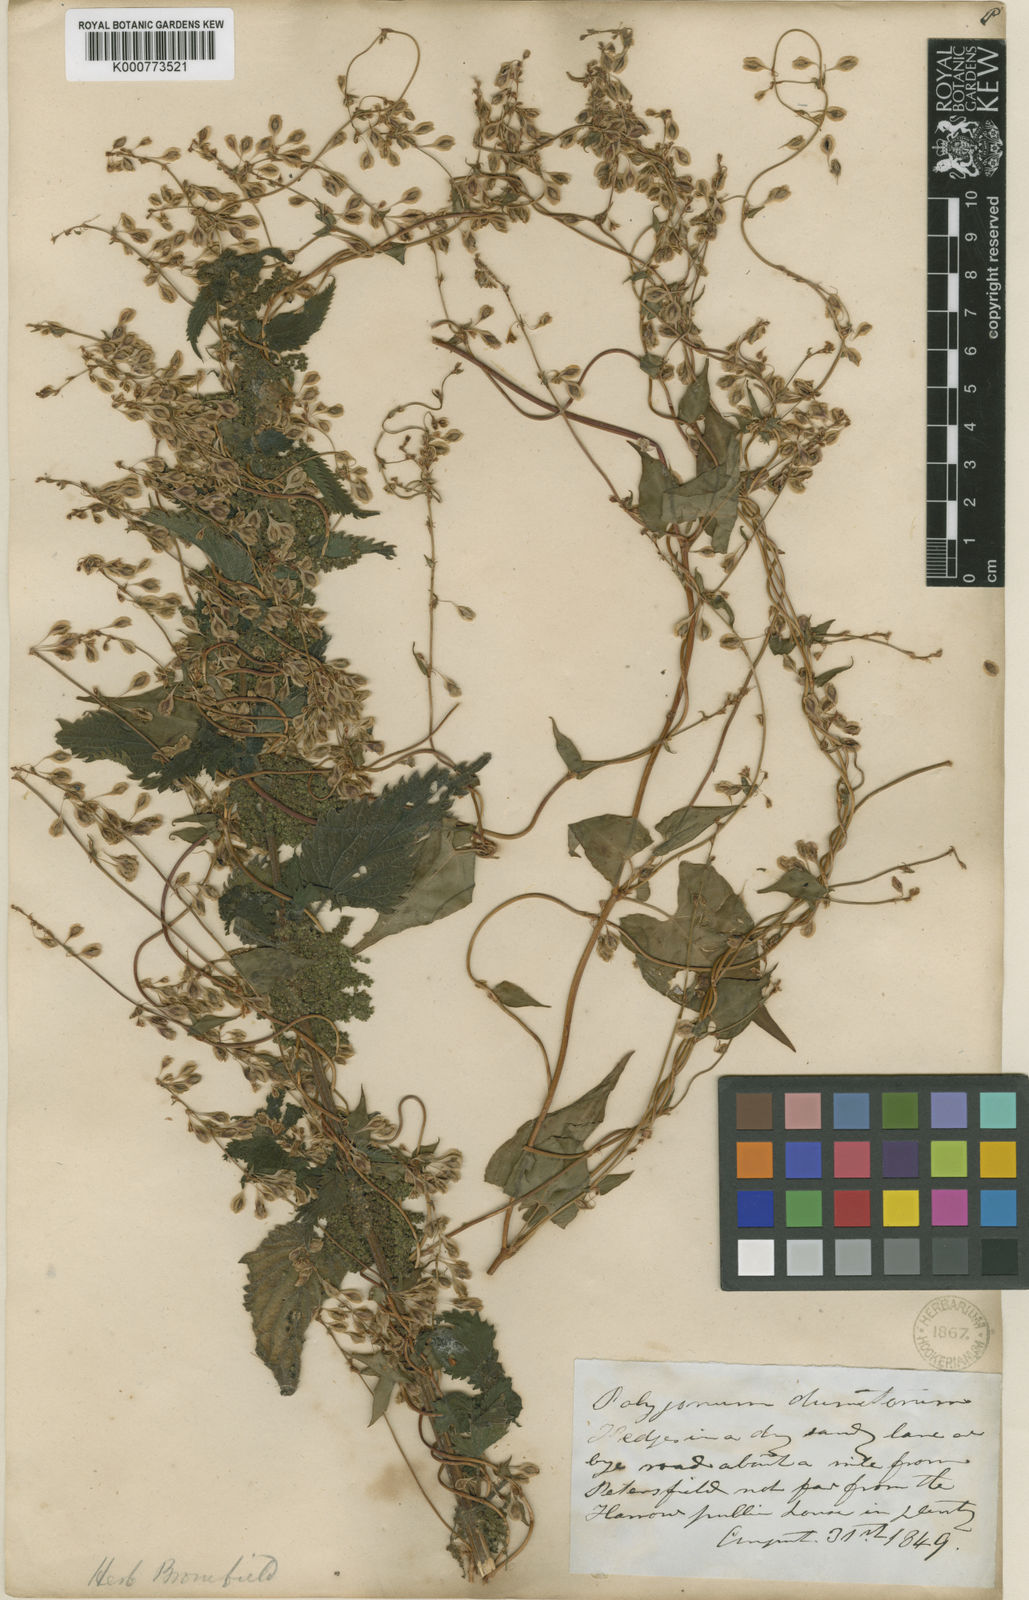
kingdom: Plantae
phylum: Tracheophyta
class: Magnoliopsida
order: Caryophyllales
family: Polygonaceae
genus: Fallopia
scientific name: Fallopia dumetorum
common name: Copse-bindweed
